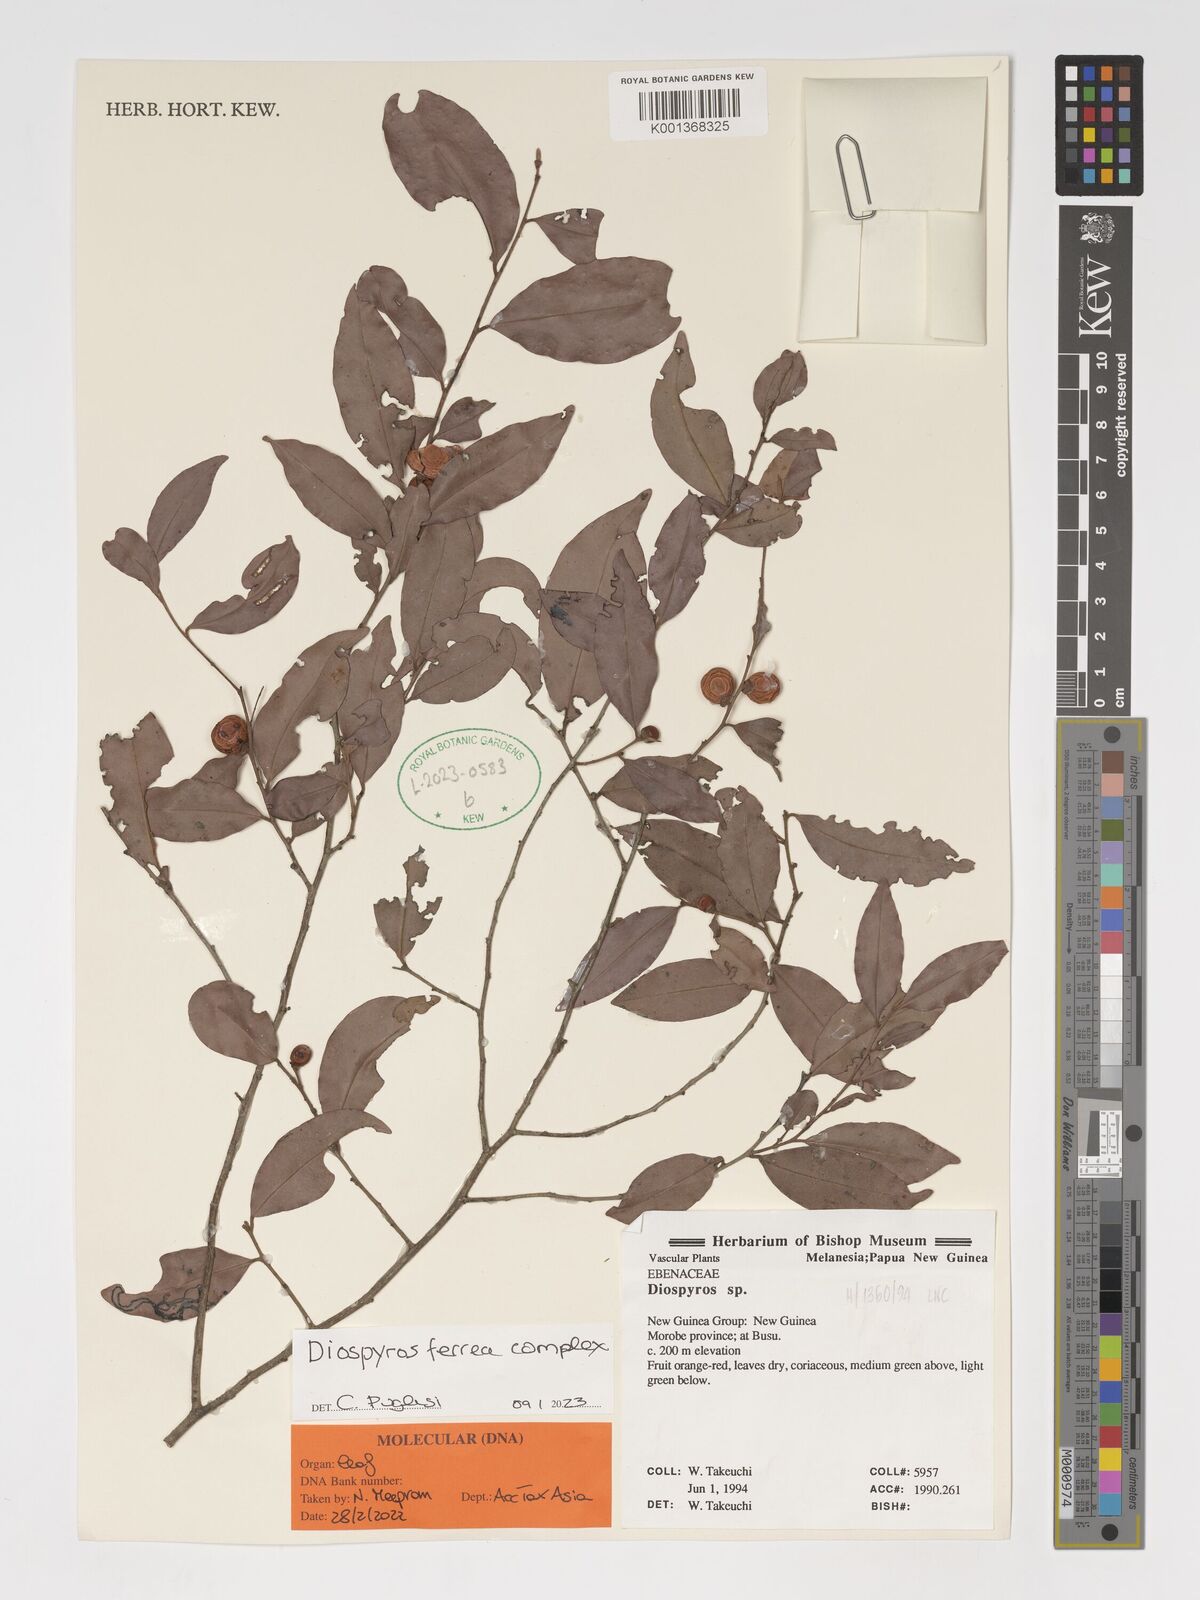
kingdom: Plantae
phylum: Tracheophyta
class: Magnoliopsida
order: Ericales
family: Ebenaceae
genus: Diospyros
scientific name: Diospyros ferrea
